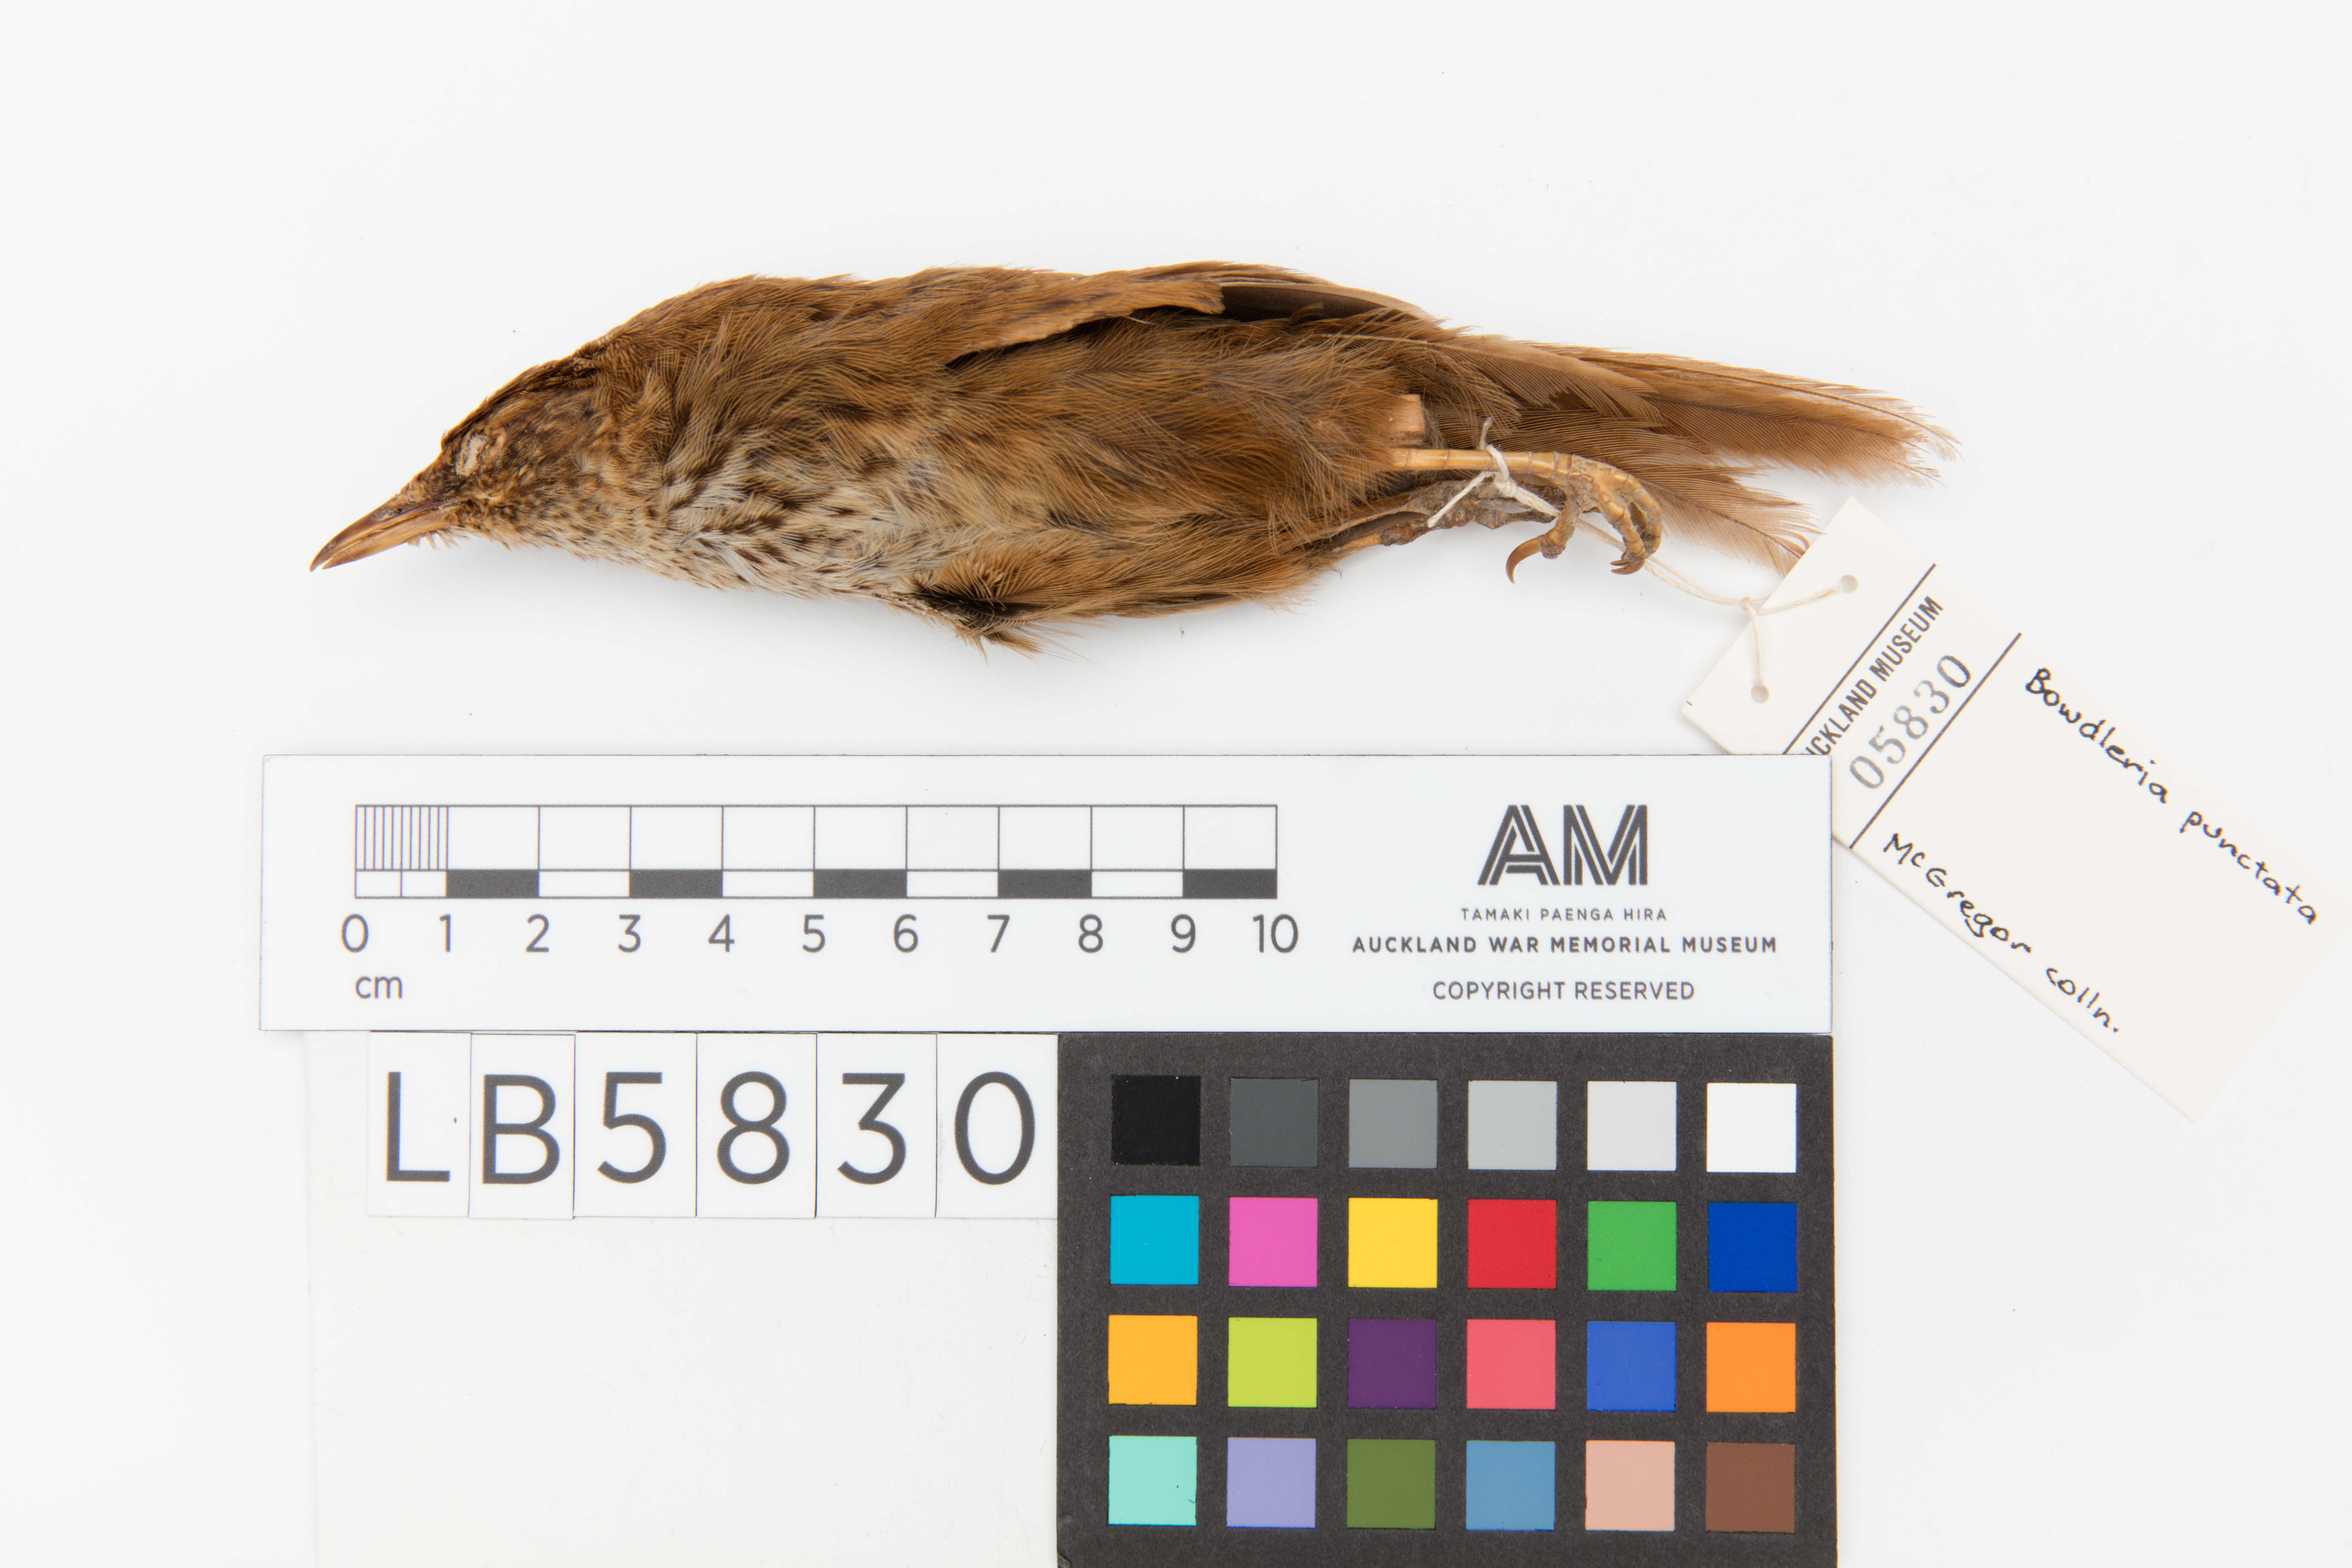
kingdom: Animalia
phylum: Chordata
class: Aves
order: Passeriformes
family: Locustellidae
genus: Megalurus
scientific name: Megalurus punctatus
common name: New zealand fernbird
